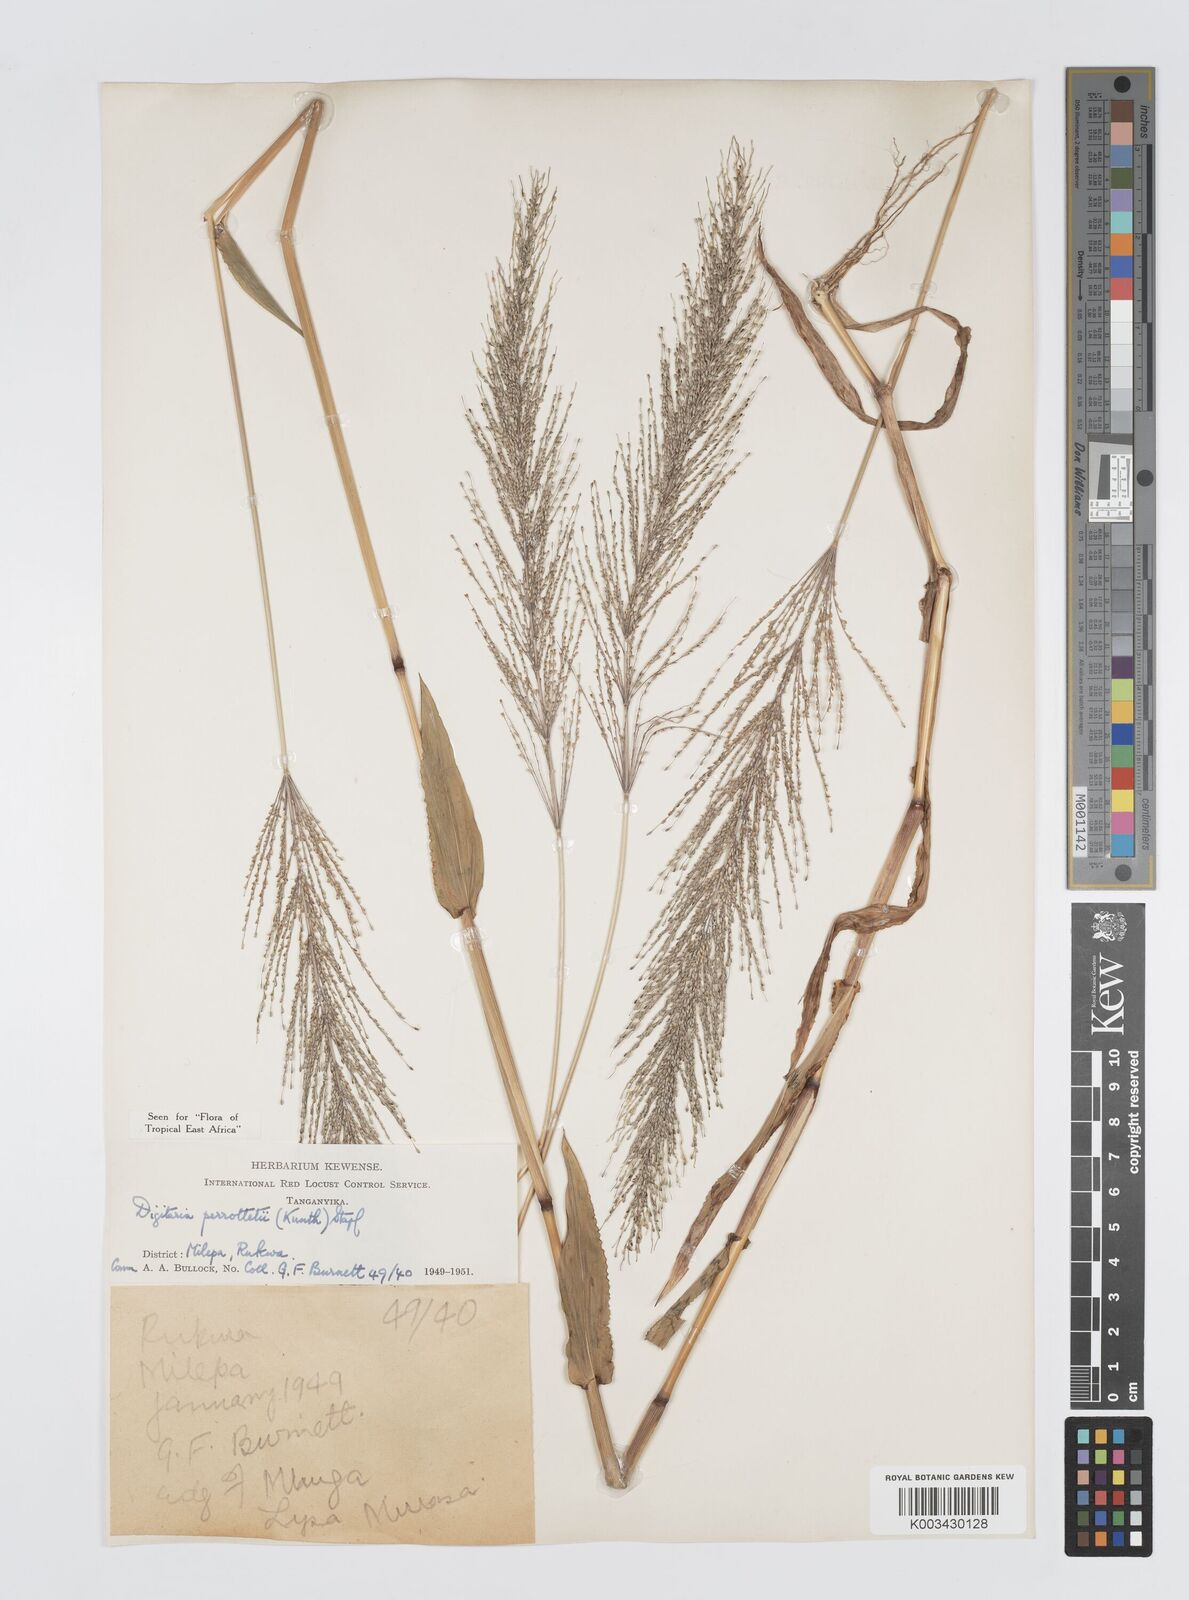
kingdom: Plantae
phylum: Tracheophyta
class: Liliopsida
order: Poales
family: Poaceae
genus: Digitaria
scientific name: Digitaria perrottetii
